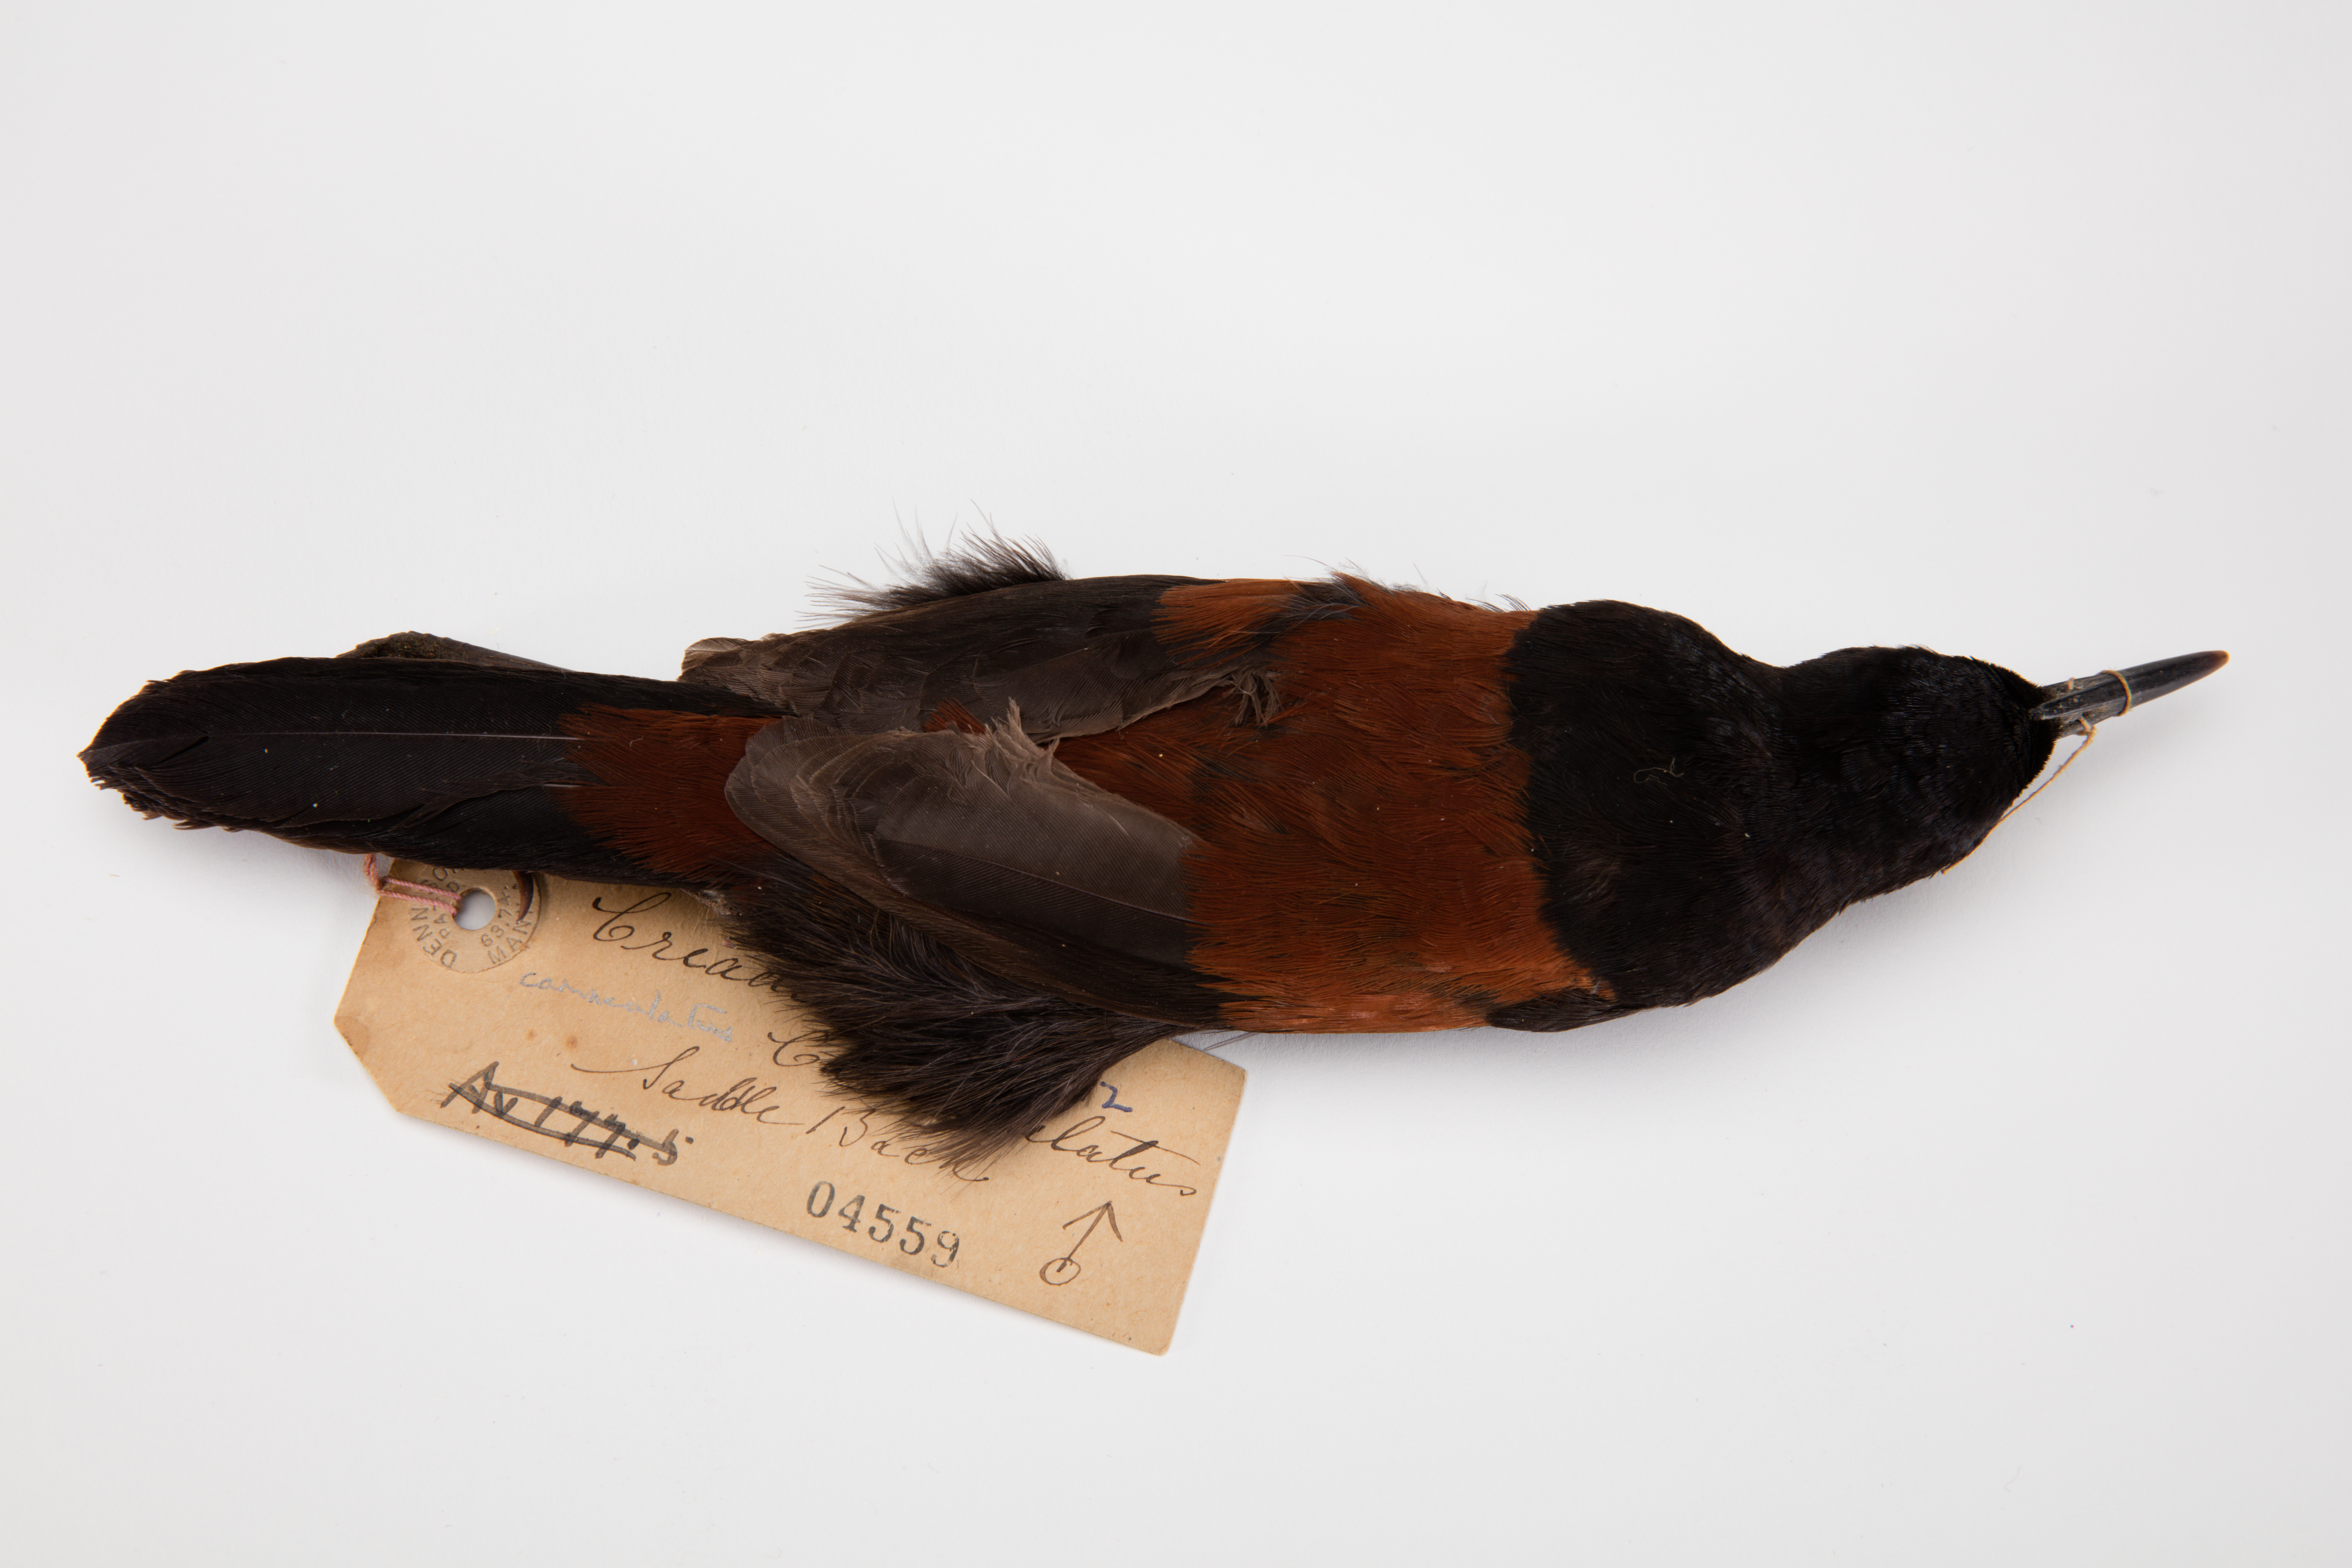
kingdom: Animalia
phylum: Chordata
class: Aves
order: Passeriformes
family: Callaeatidae
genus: Philesturnus
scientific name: Philesturnus carunculatus
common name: South island saddleback
